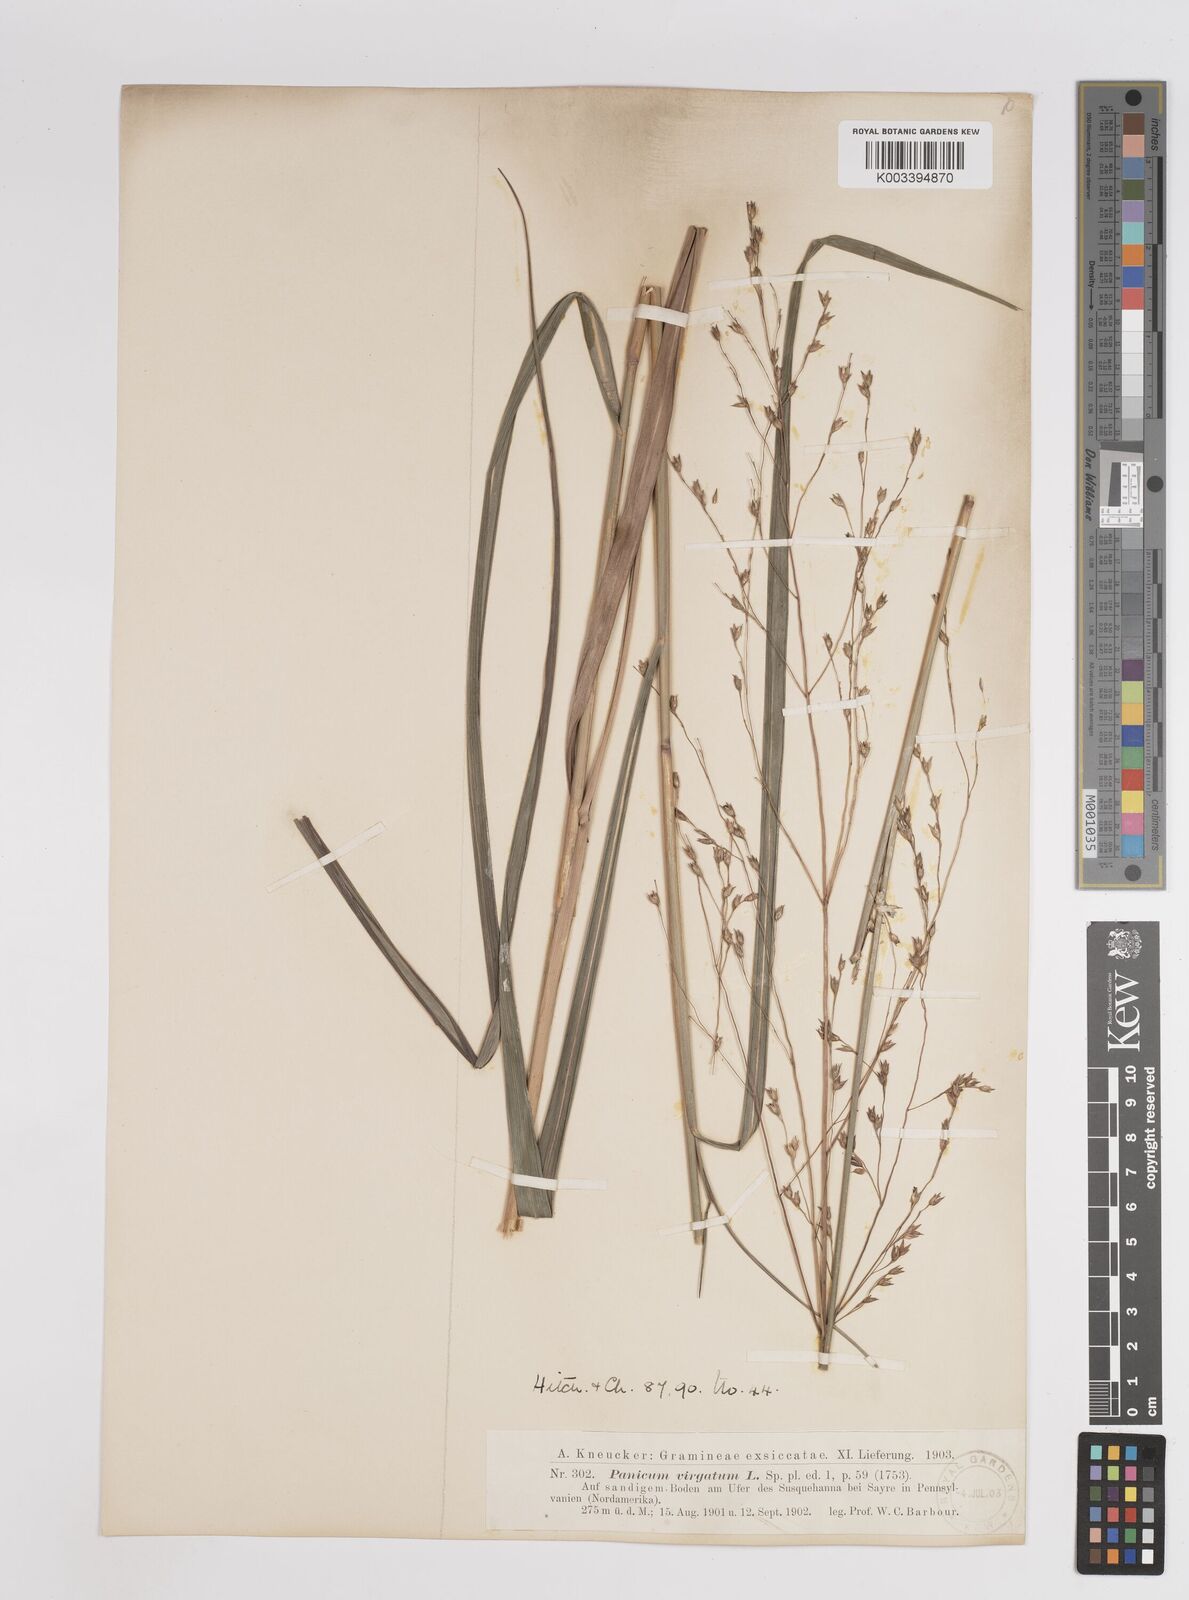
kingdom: Plantae
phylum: Tracheophyta
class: Liliopsida
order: Poales
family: Poaceae
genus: Panicum
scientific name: Panicum virgatum
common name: Switchgrass
